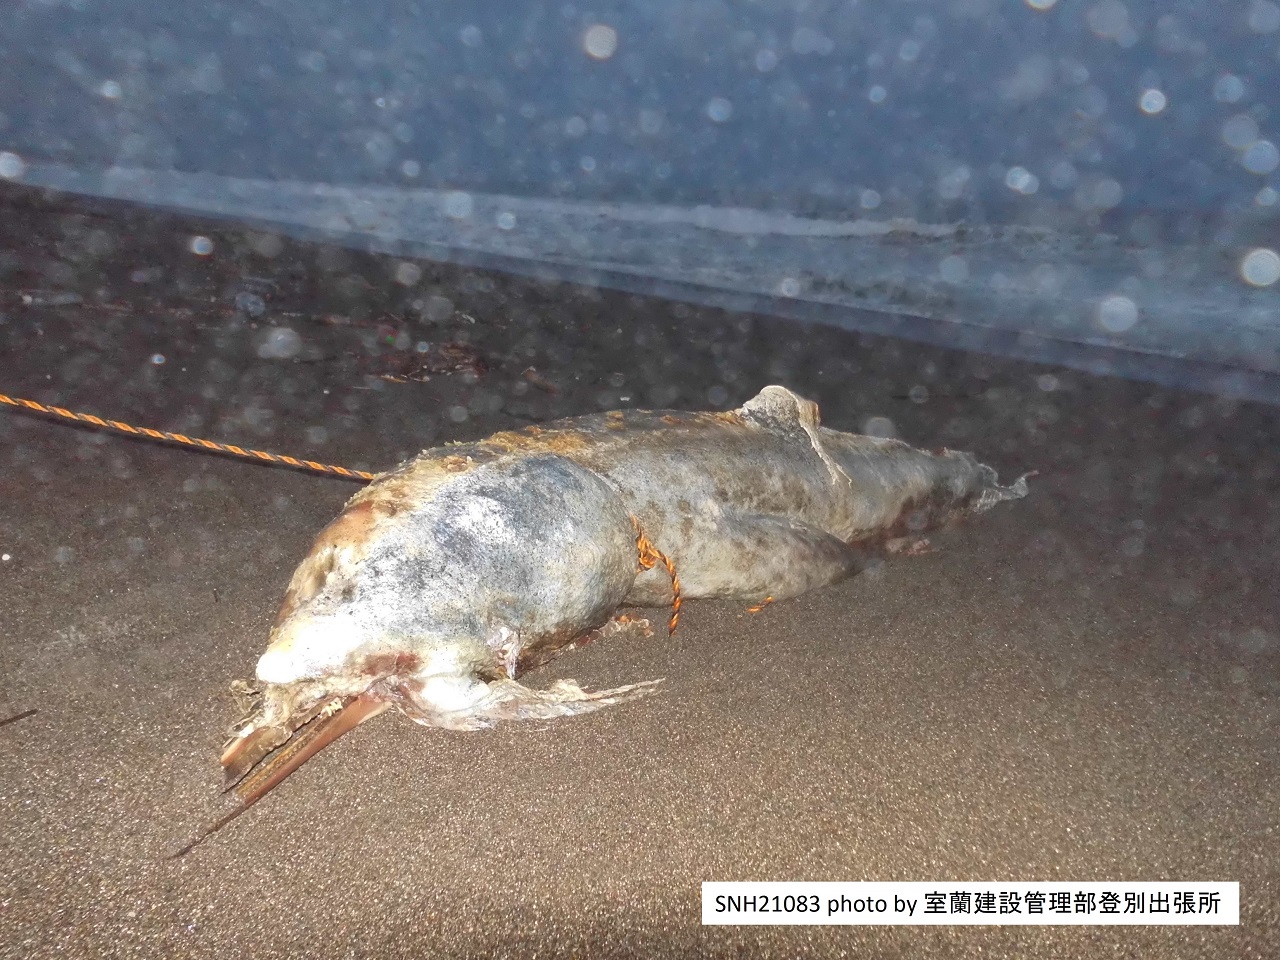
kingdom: Animalia
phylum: Chordata
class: Mammalia
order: Cetacea
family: Delphinidae
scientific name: Delphinidae
